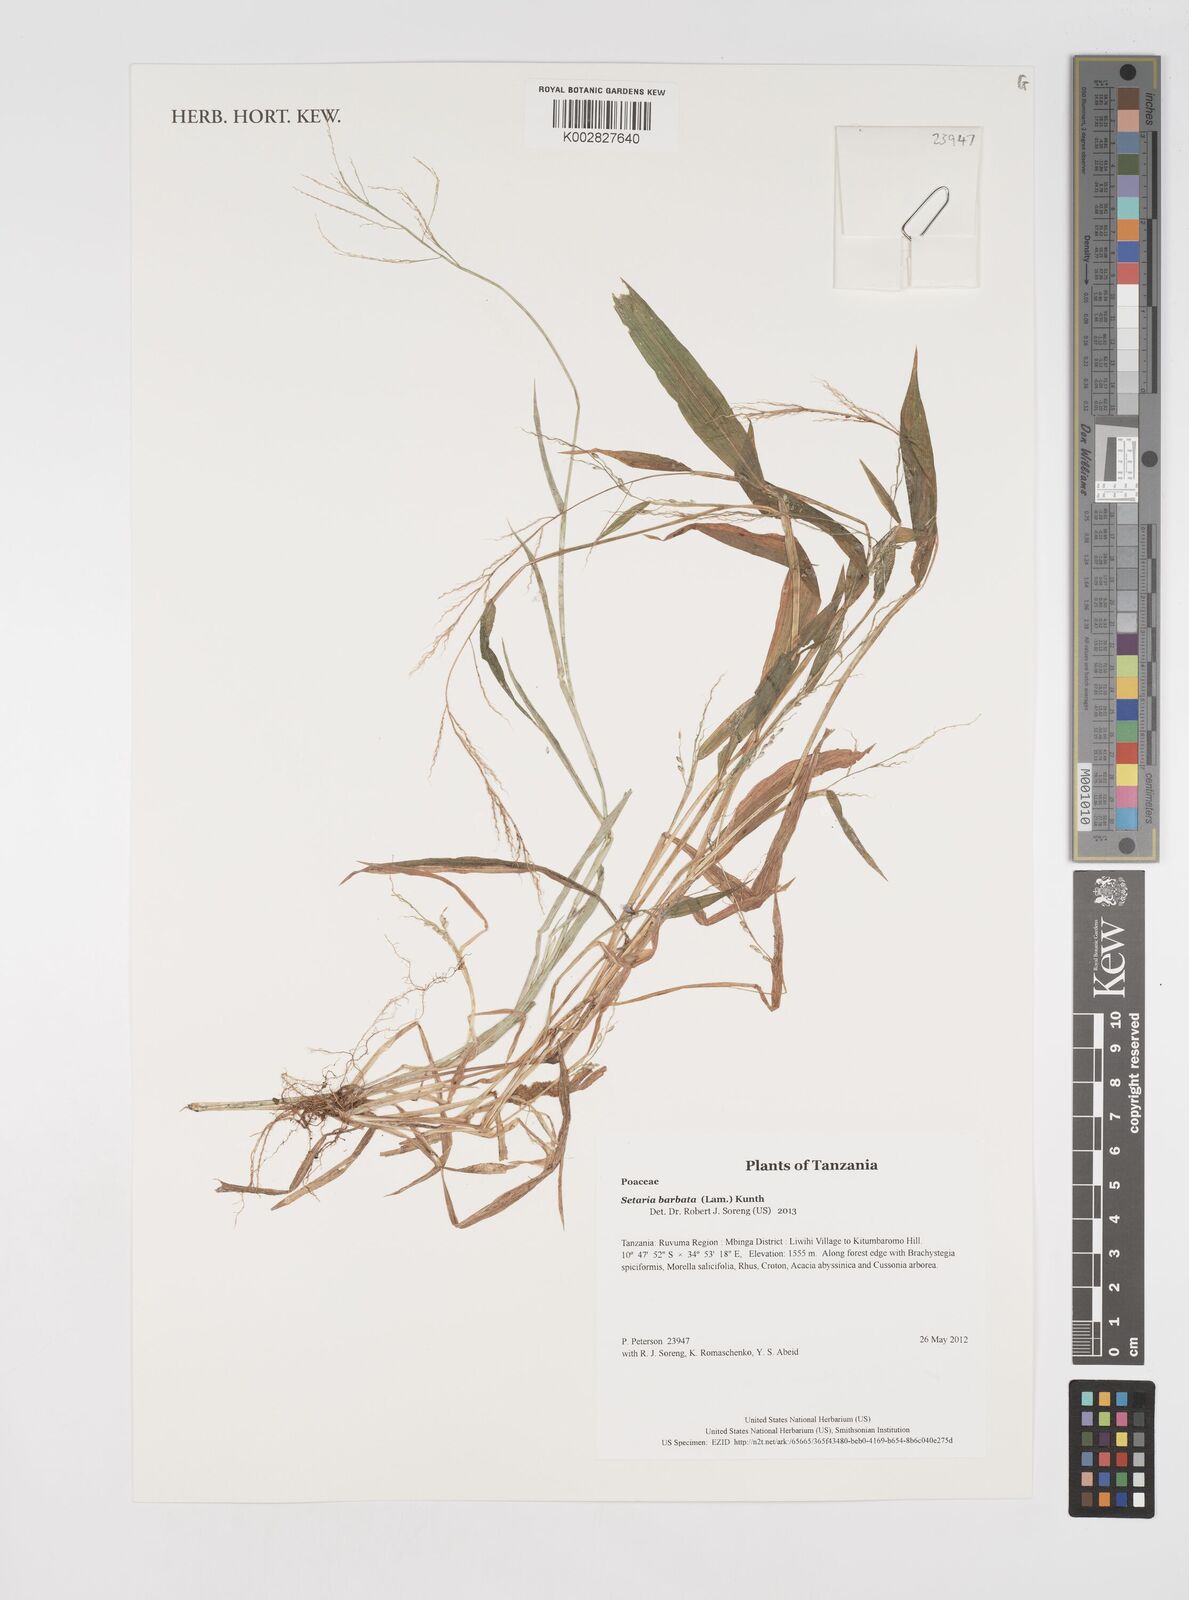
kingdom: Plantae
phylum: Tracheophyta
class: Liliopsida
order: Poales
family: Poaceae
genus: Setaria
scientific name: Setaria barbata
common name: East indian bristlegrass
